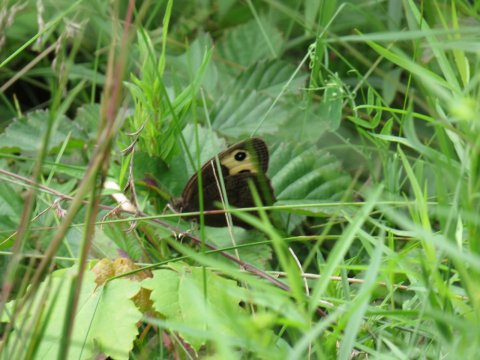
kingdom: Animalia
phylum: Arthropoda
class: Insecta
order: Lepidoptera
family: Nymphalidae
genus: Cercyonis
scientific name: Cercyonis pegala
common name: Common Wood-Nymph
